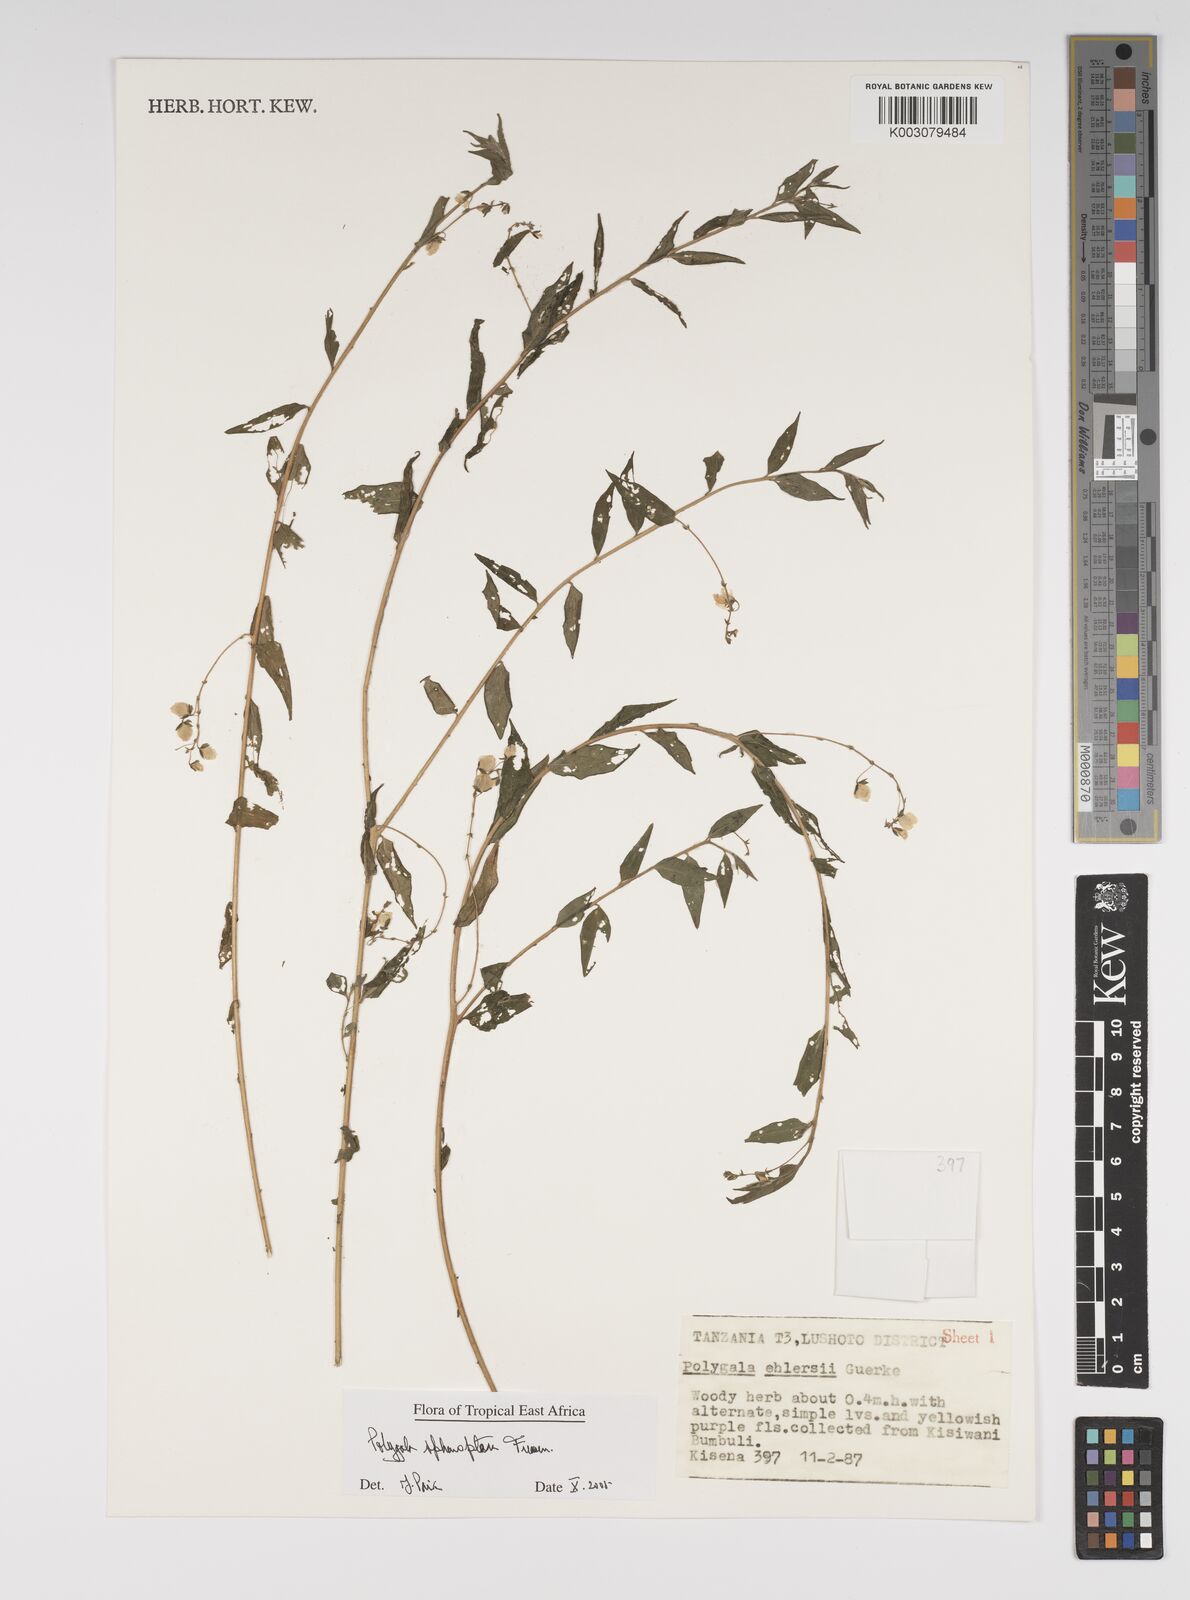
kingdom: Plantae
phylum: Tracheophyta
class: Magnoliopsida
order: Fabales
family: Polygalaceae
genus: Polygala
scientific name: Polygala sphenoptera
